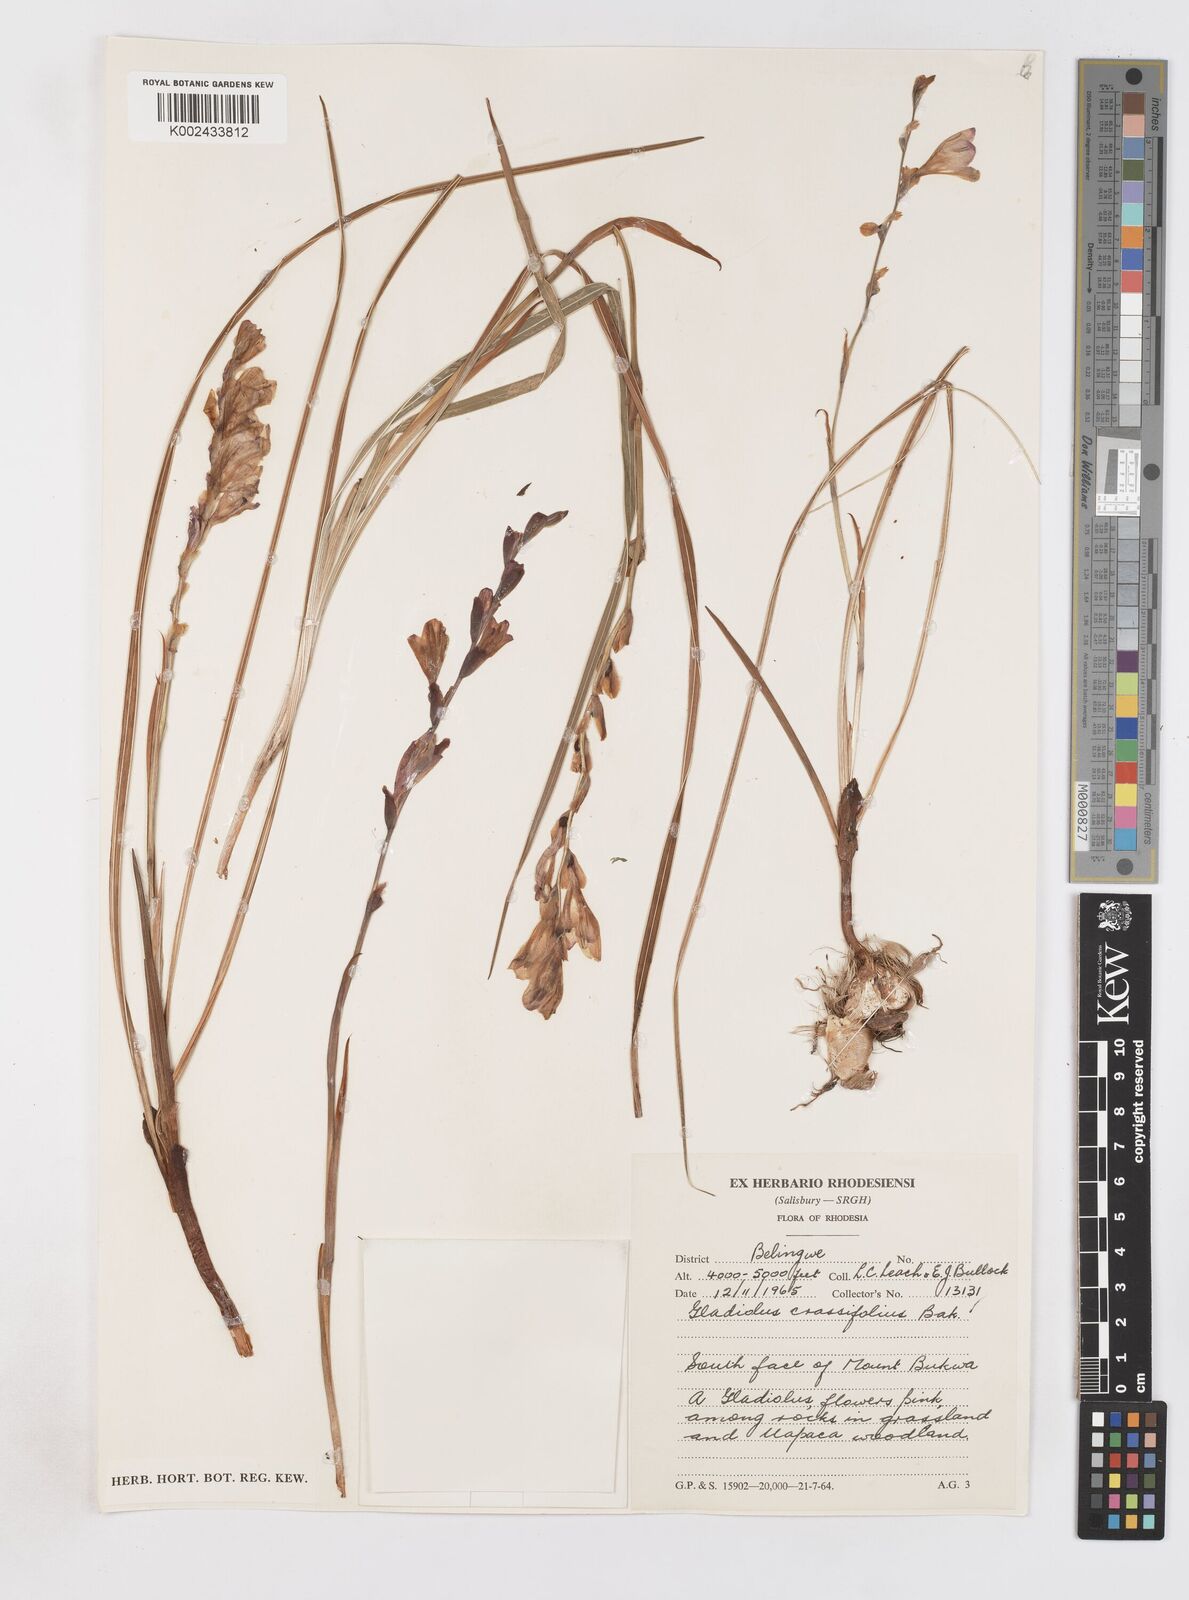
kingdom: Plantae
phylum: Tracheophyta
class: Liliopsida
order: Asparagales
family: Iridaceae
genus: Gladiolus
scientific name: Gladiolus crassifolius
